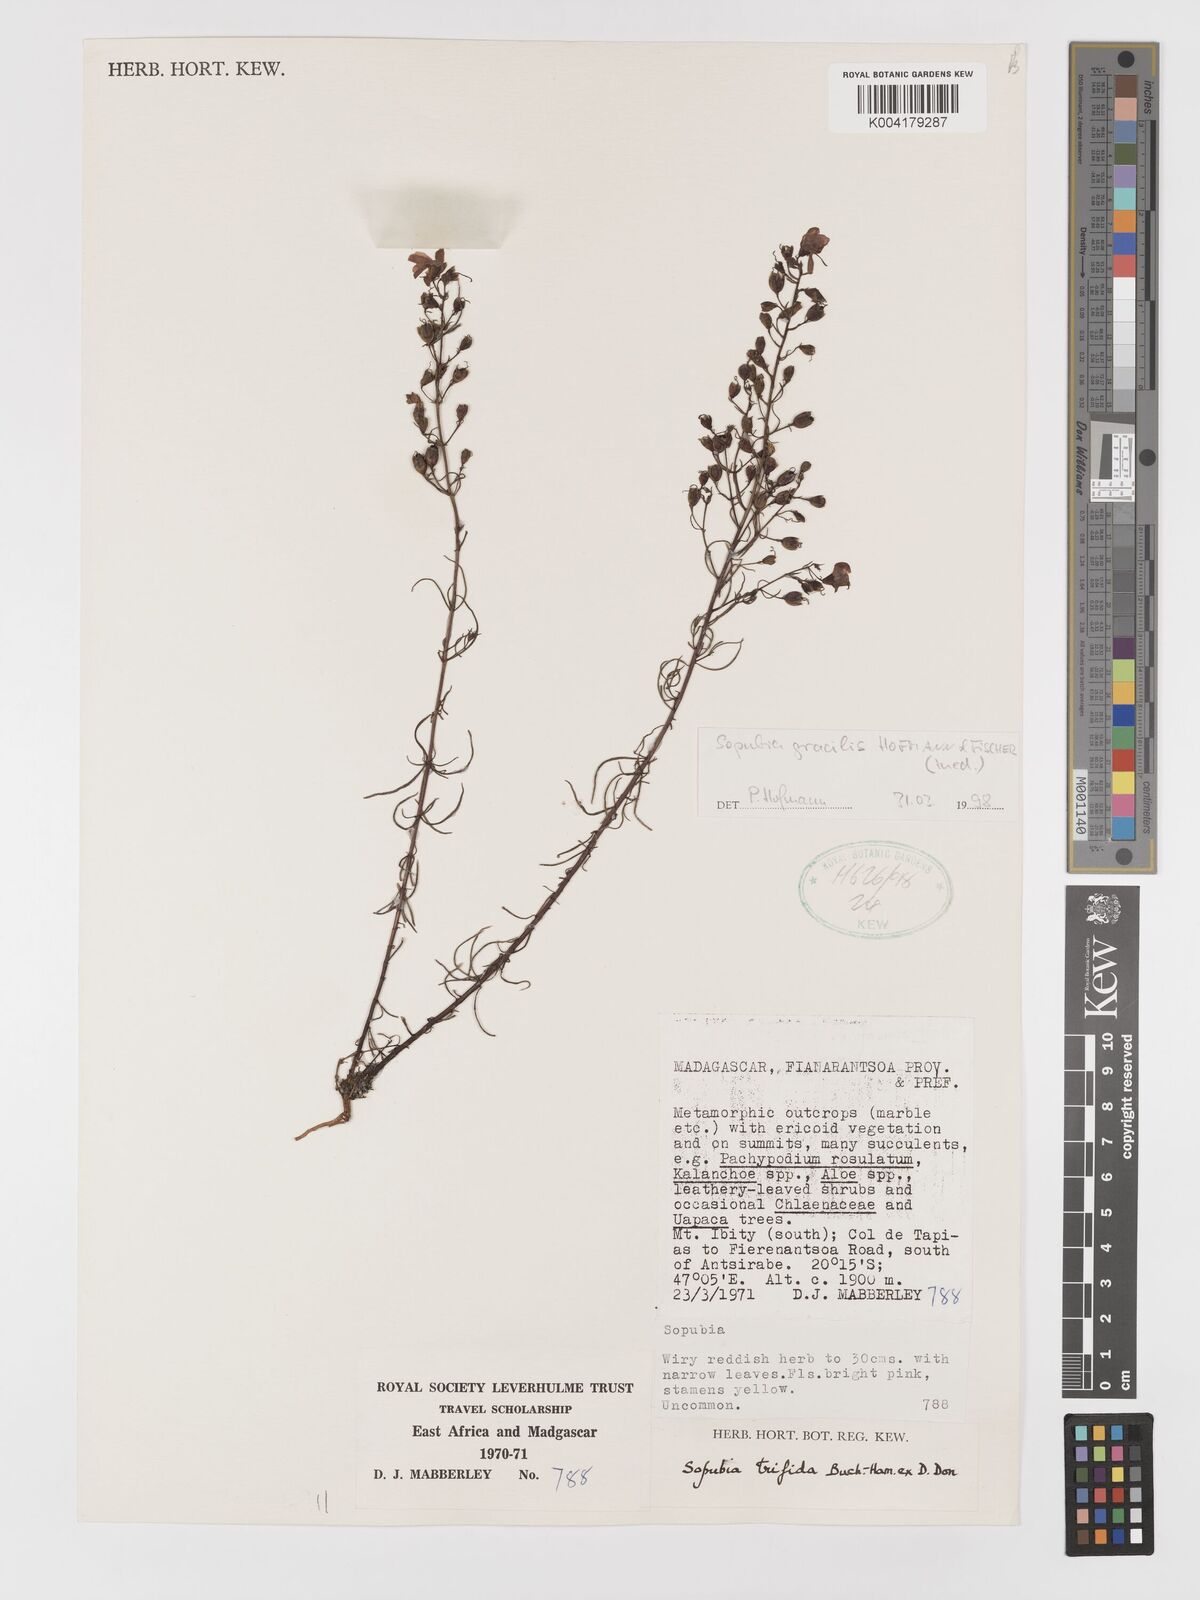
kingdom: Plantae
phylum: Tracheophyta
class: Magnoliopsida
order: Lamiales
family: Orobanchaceae
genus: Sopubia
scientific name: Sopubia gracilis
